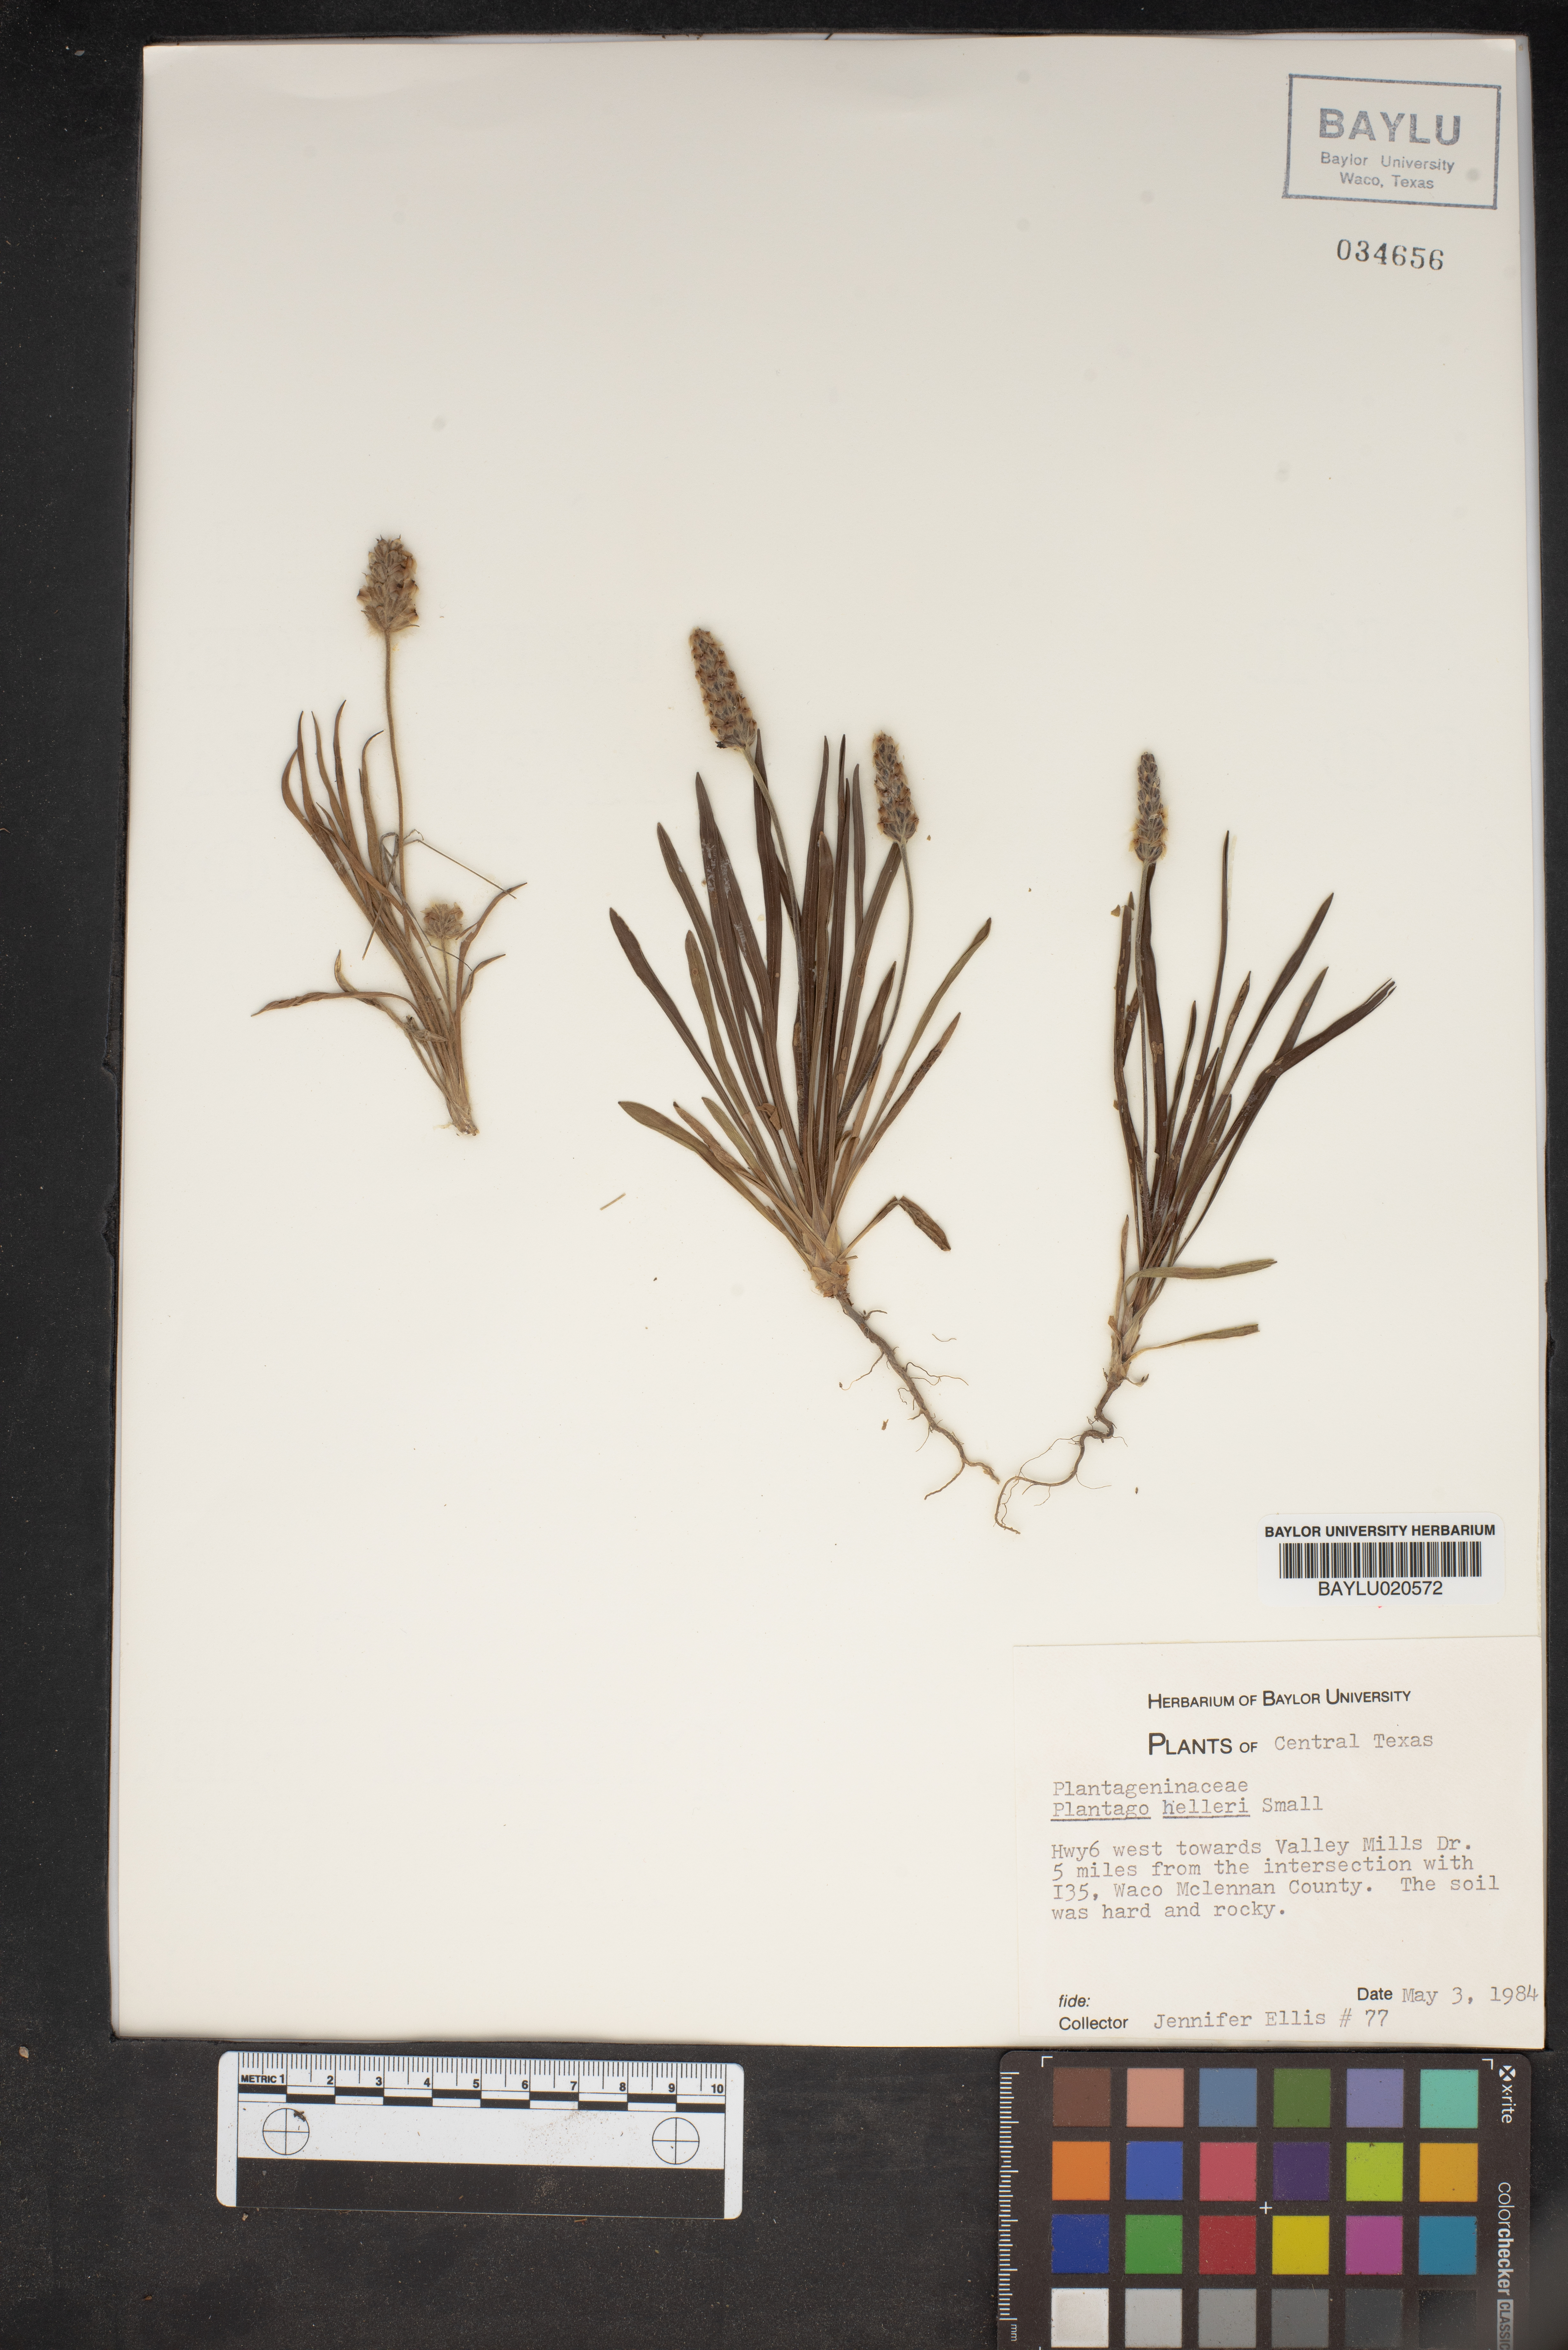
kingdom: Plantae
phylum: Tracheophyta
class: Magnoliopsida
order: Lamiales
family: Plantaginaceae
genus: Plantago
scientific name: Plantago helleri
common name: Heller's plantain
